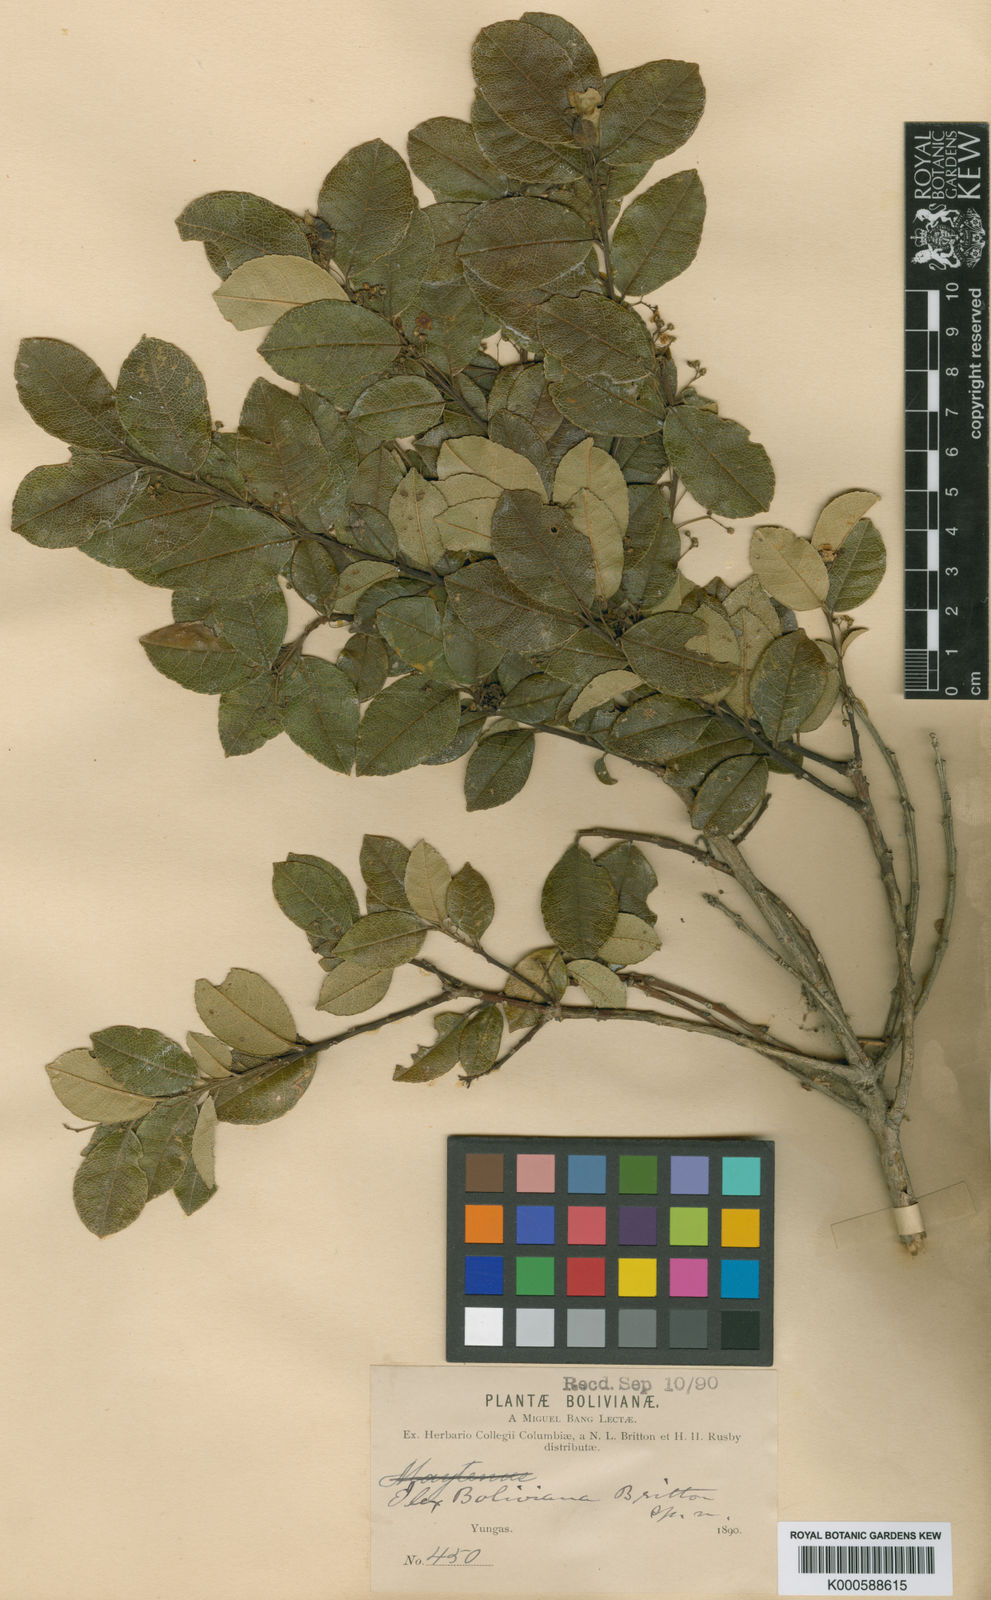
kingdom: Plantae
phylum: Tracheophyta
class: Magnoliopsida
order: Aquifoliales
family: Aquifoliaceae
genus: Ilex
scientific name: Ilex boliviana
